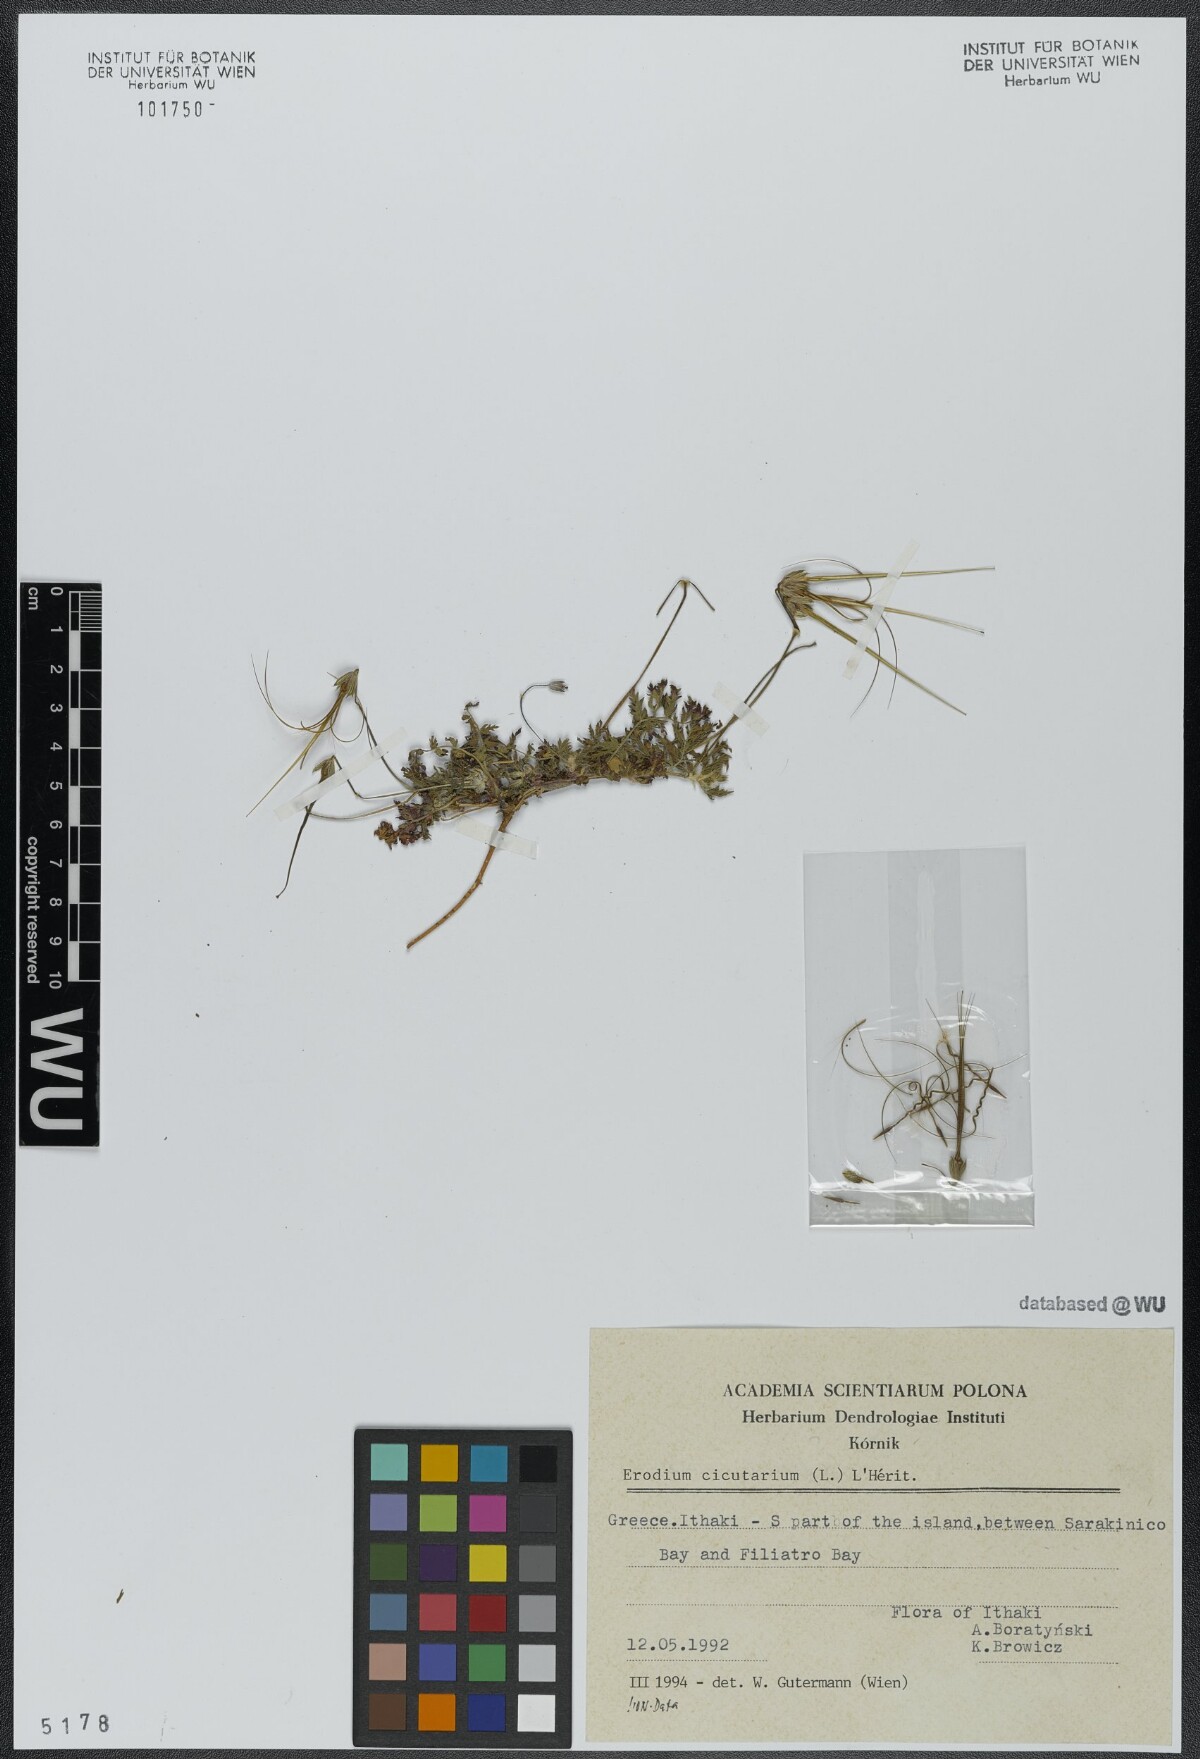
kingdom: Plantae
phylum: Tracheophyta
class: Magnoliopsida
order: Geraniales
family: Geraniaceae
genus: Erodium
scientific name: Erodium cicutarium
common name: Common stork's-bill
